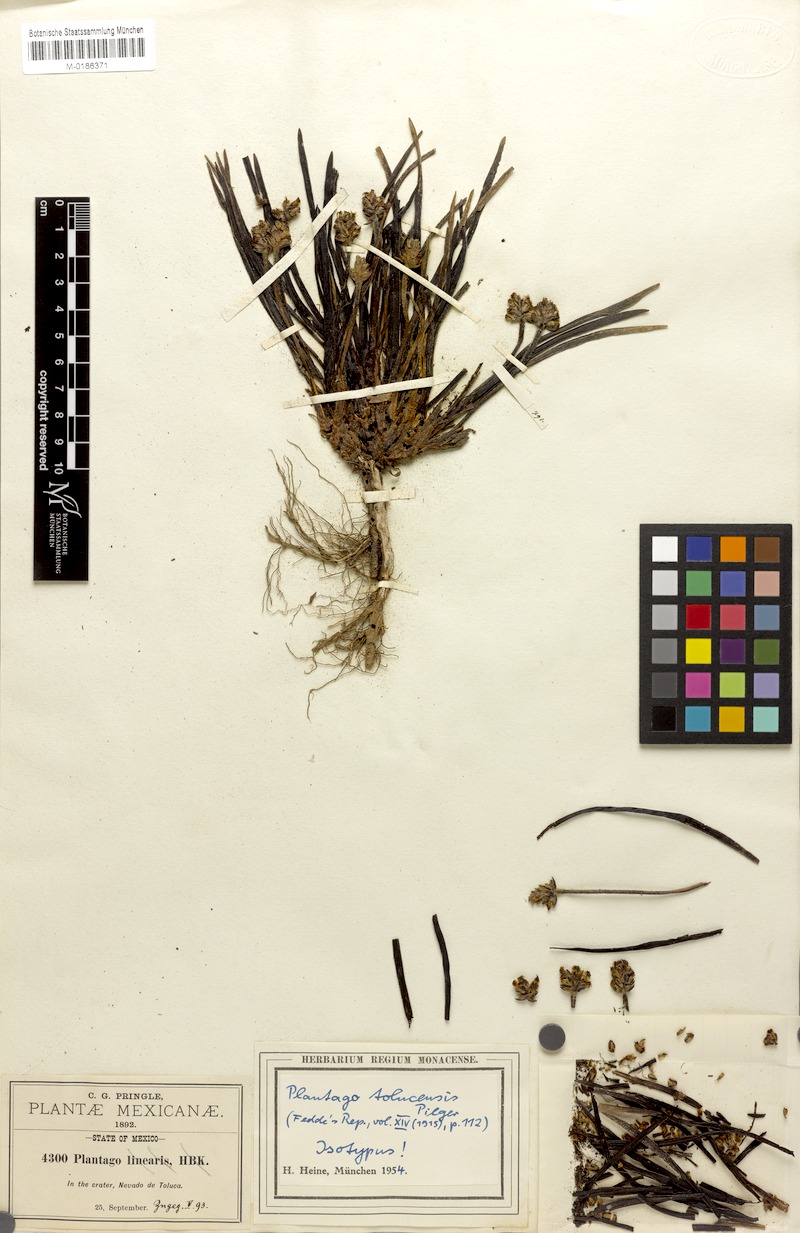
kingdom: Plantae
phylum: Tracheophyta
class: Magnoliopsida
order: Lamiales
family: Plantaginaceae
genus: Plantago
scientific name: Plantago tolucensis
